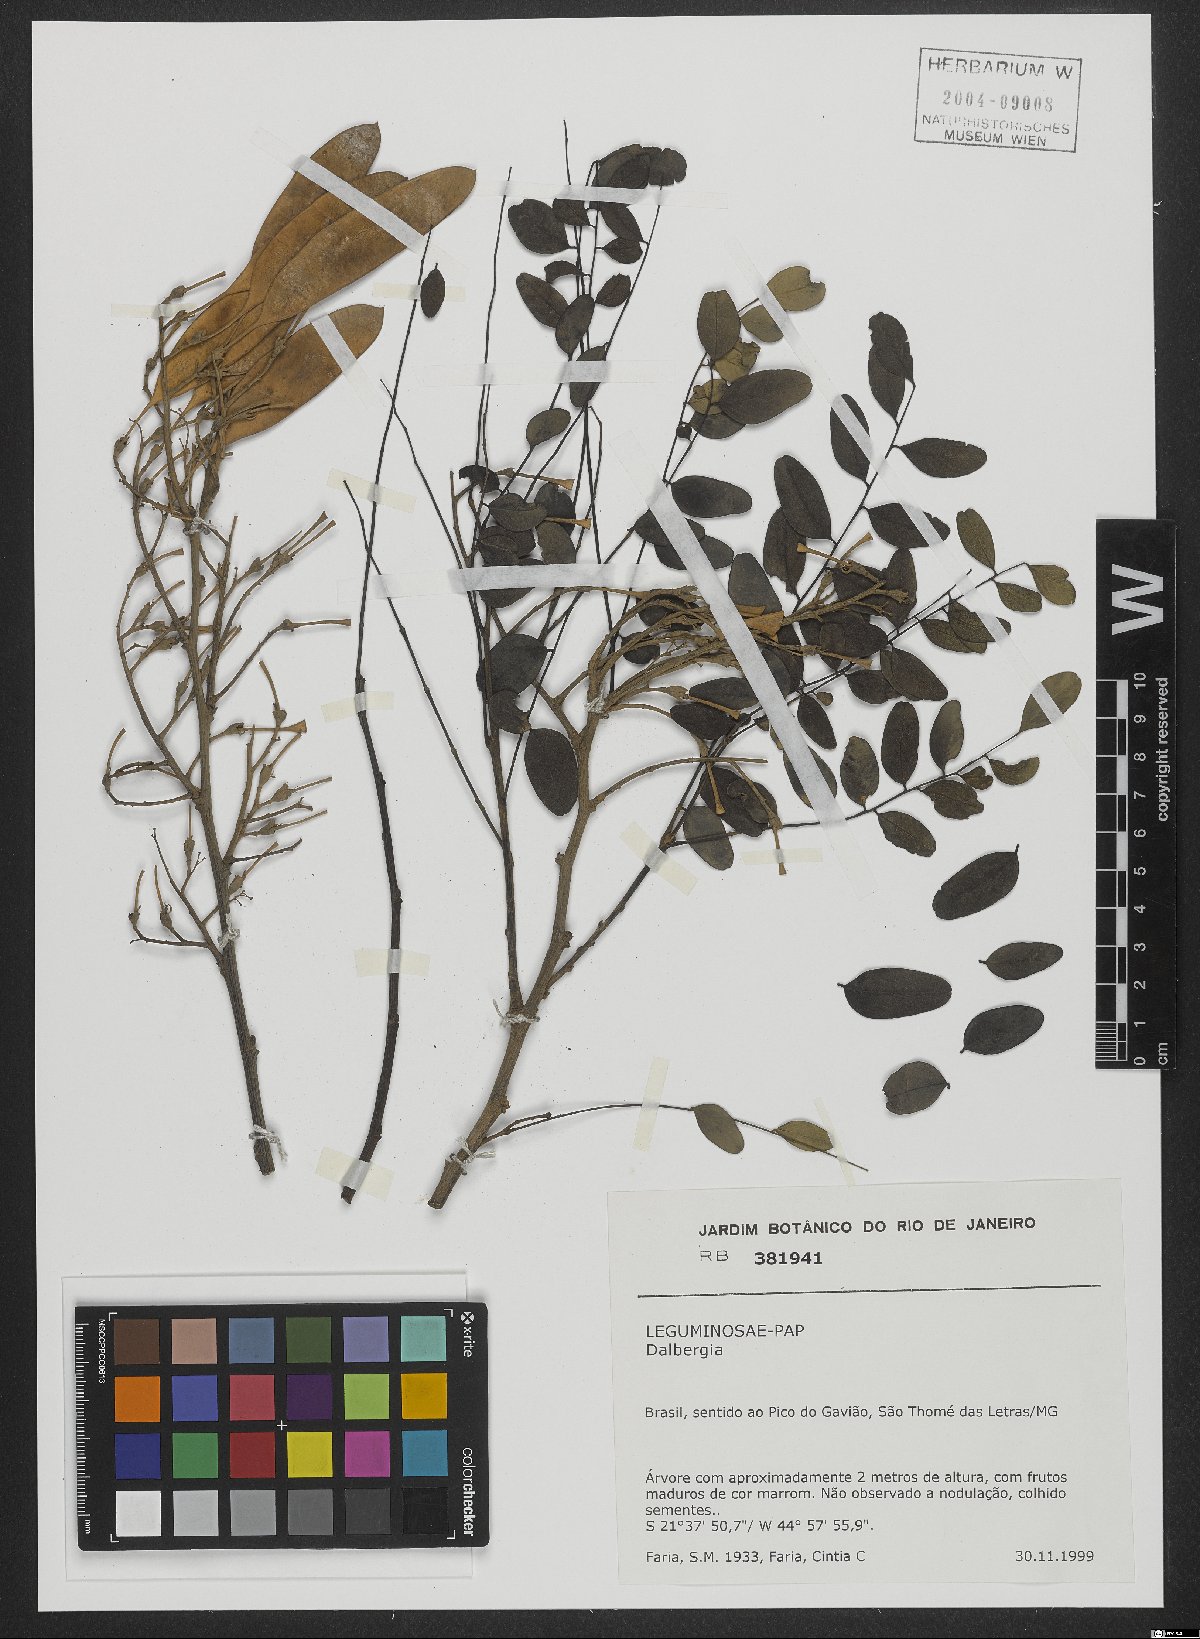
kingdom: Plantae
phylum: Tracheophyta
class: Magnoliopsida
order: Fabales
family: Fabaceae
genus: Dalbergia
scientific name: Dalbergia
